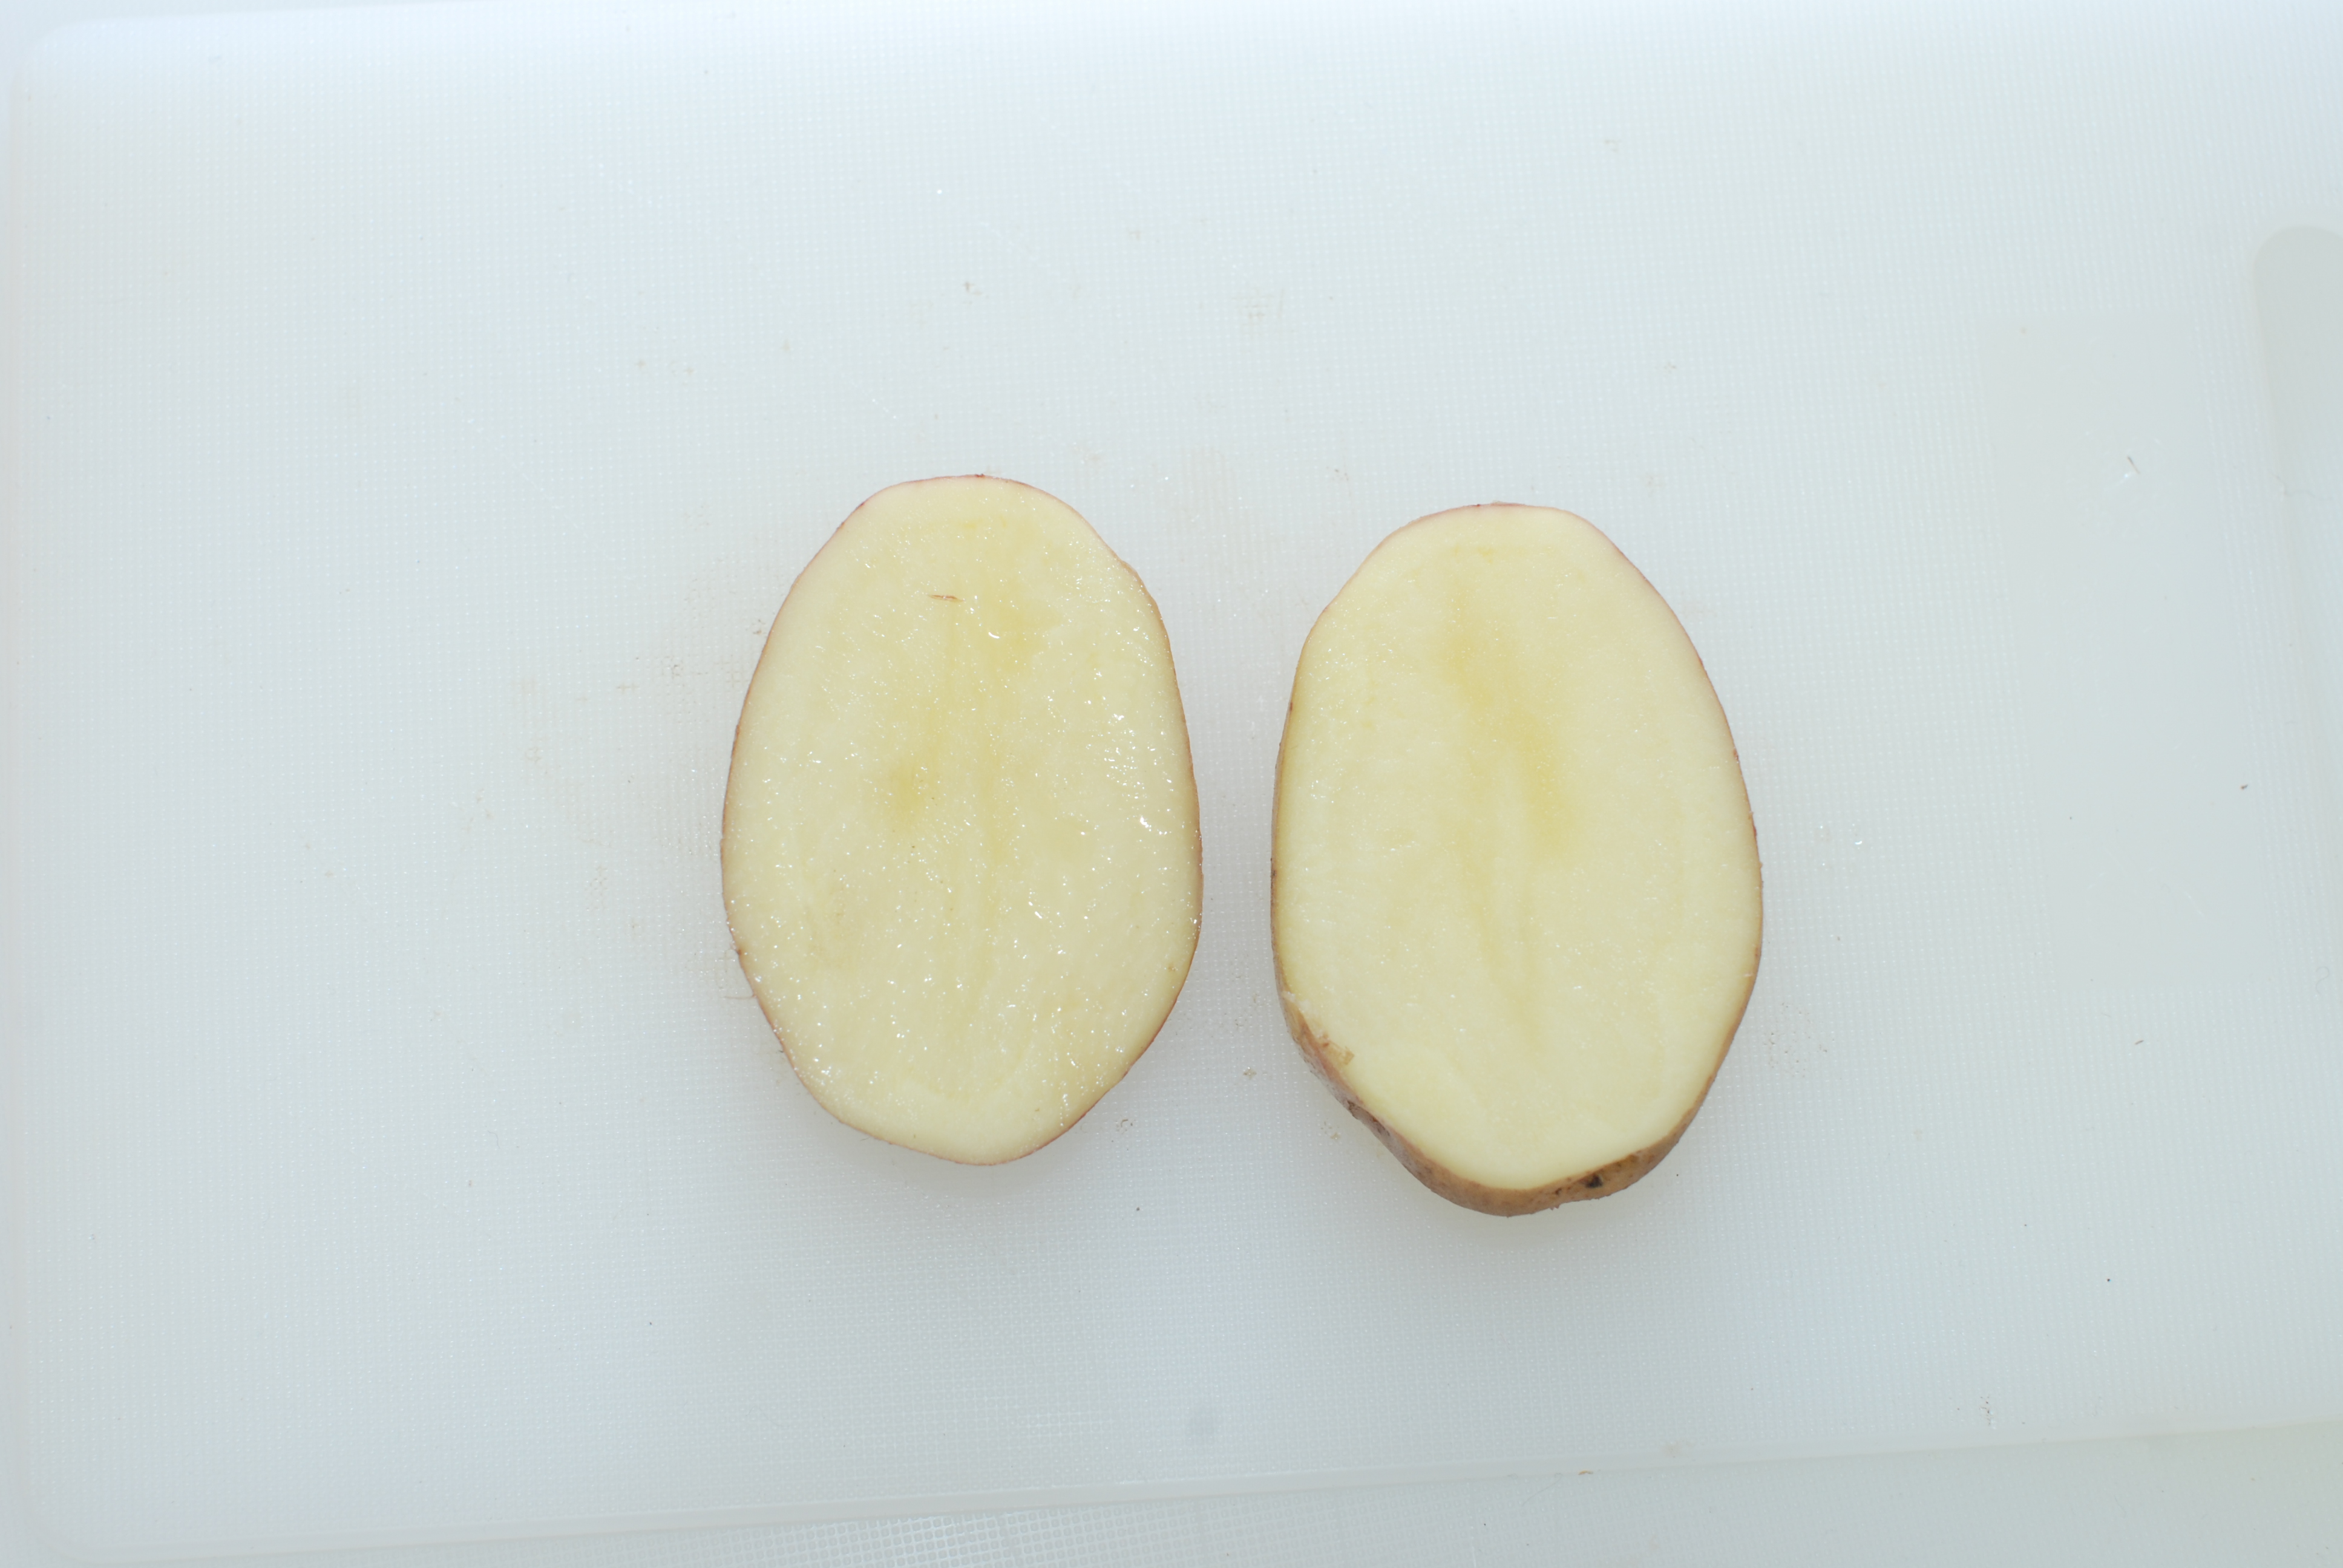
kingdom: Plantae
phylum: Tracheophyta
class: Magnoliopsida
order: Solanales
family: Solanaceae
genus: Solanum
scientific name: Solanum tuberosum
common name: Potato
